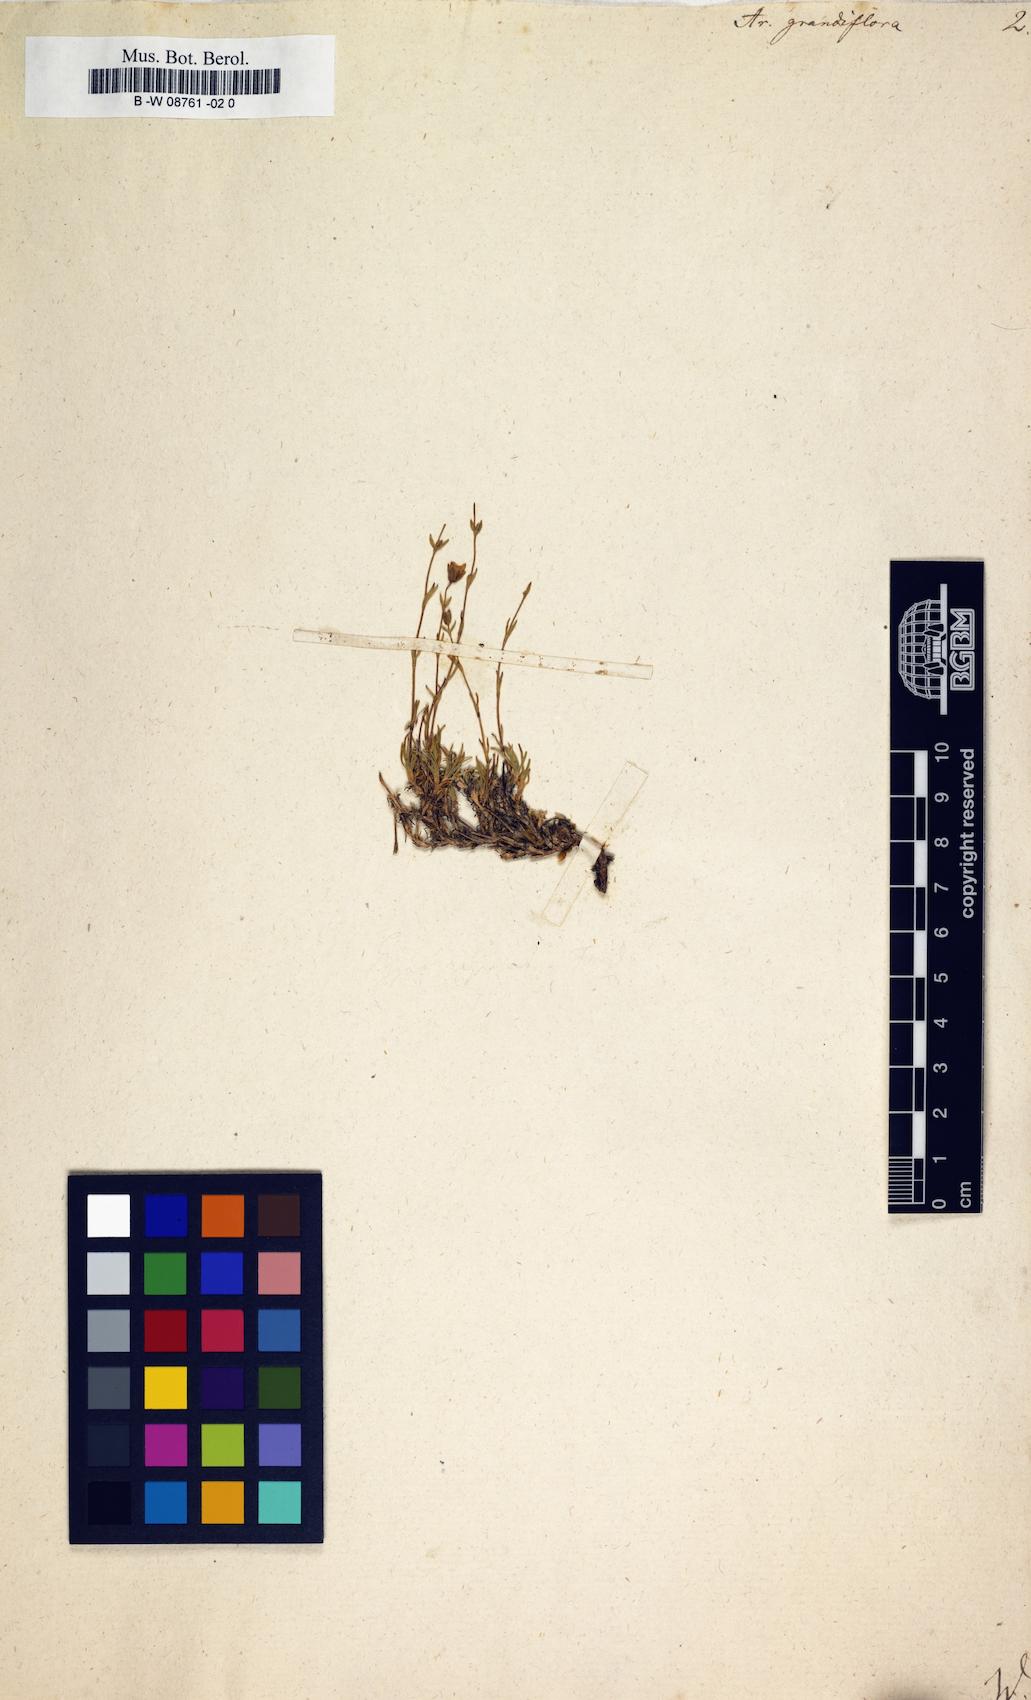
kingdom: Plantae
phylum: Tracheophyta
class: Magnoliopsida
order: Caryophyllales
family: Caryophyllaceae
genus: Arenaria
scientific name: Arenaria grandiflora
